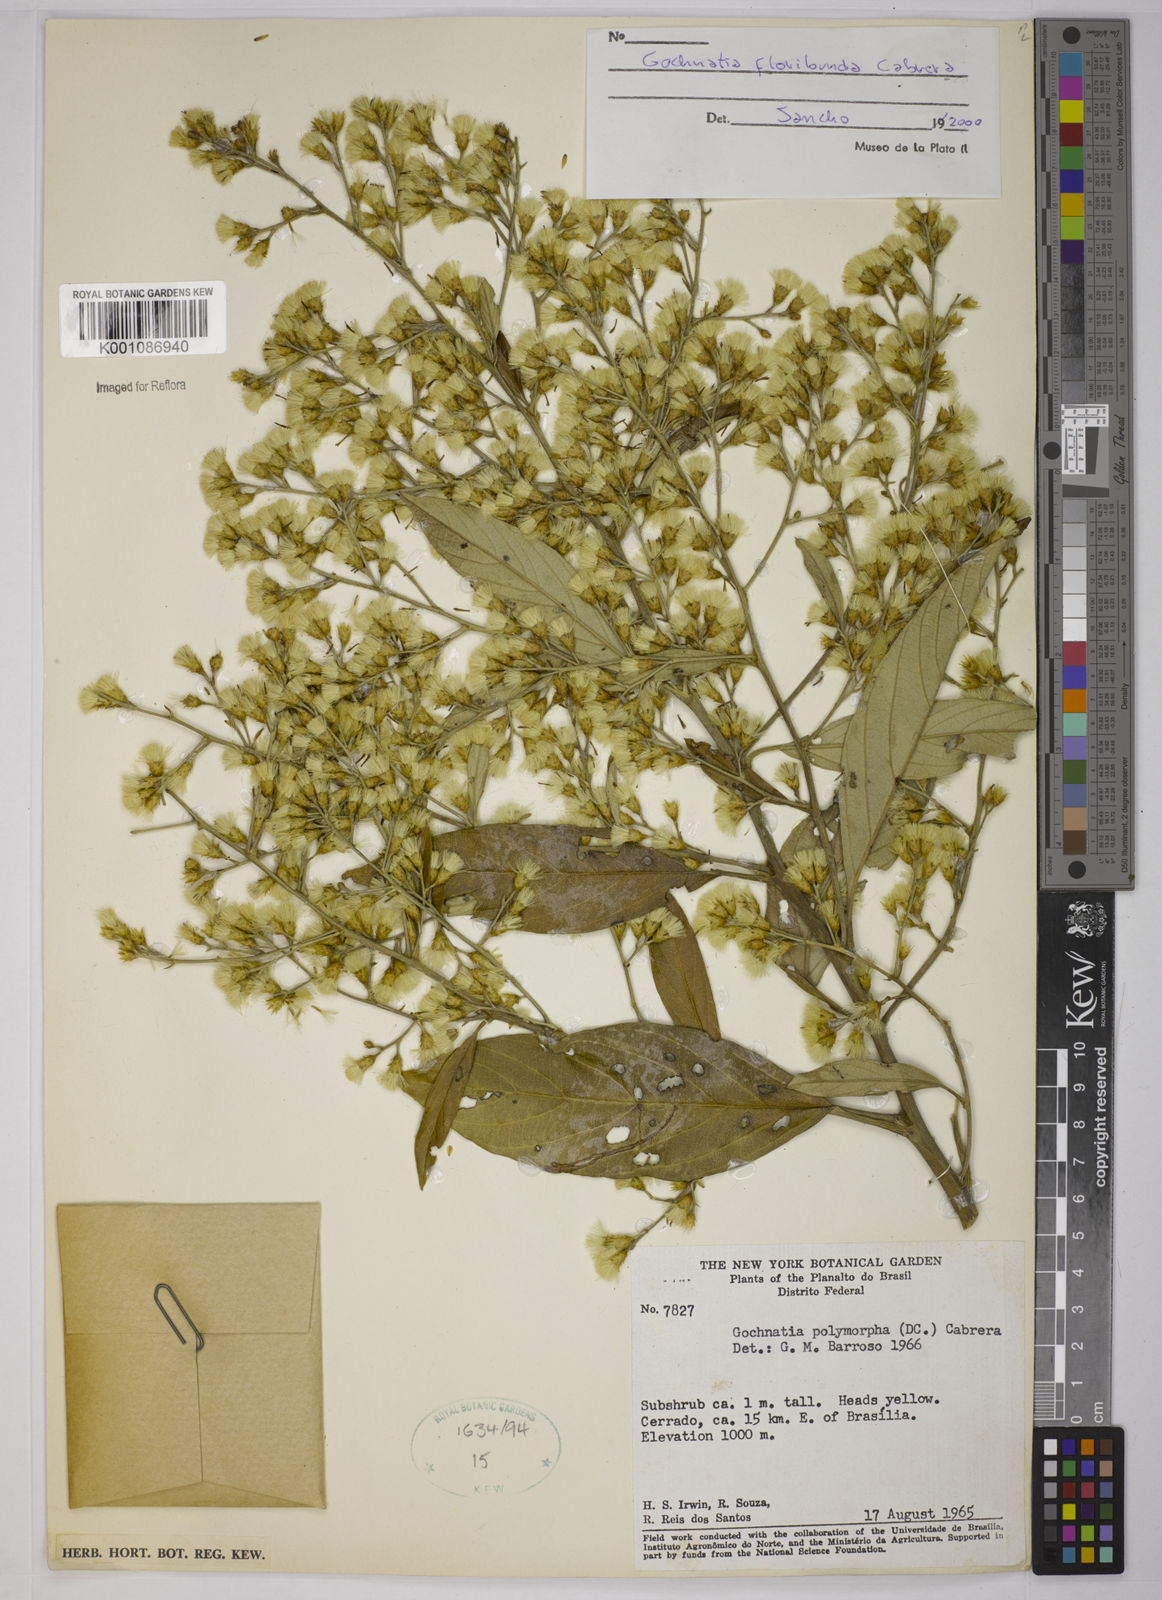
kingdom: Plantae
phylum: Tracheophyta
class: Magnoliopsida
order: Asterales
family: Asteraceae
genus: Moquiniastrum
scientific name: Moquiniastrum floribundum
